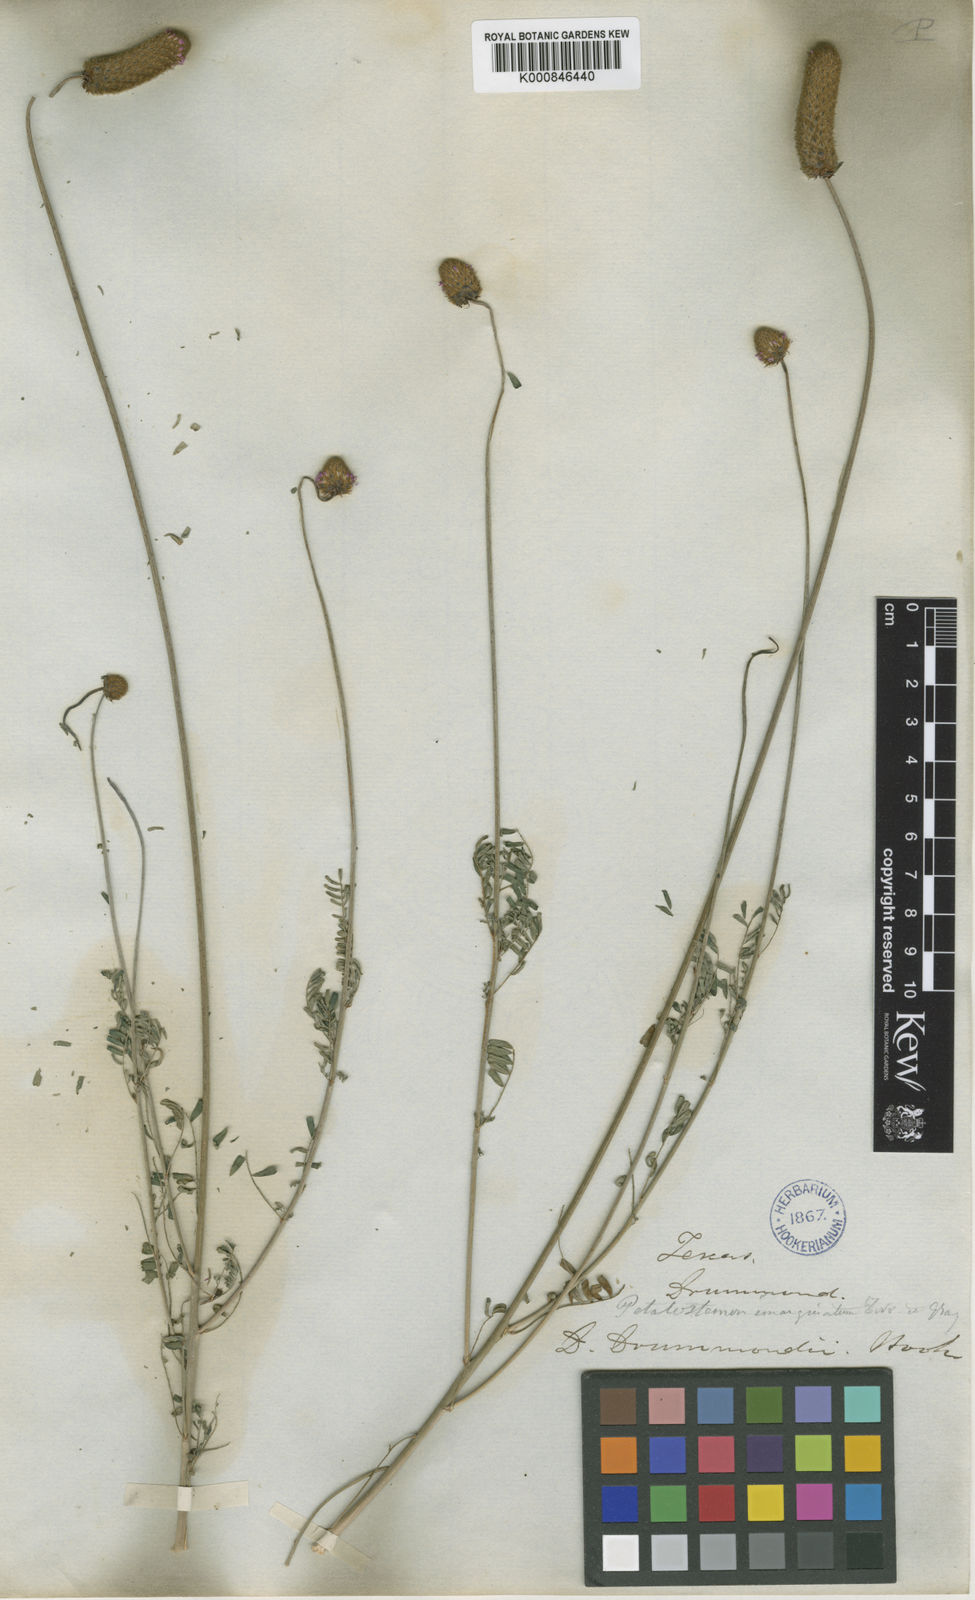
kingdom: Plantae
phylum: Tracheophyta
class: Magnoliopsida
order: Fabales
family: Fabaceae
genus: Dalea
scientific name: Dalea emarginata
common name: Wedgeleaf prairie clover
